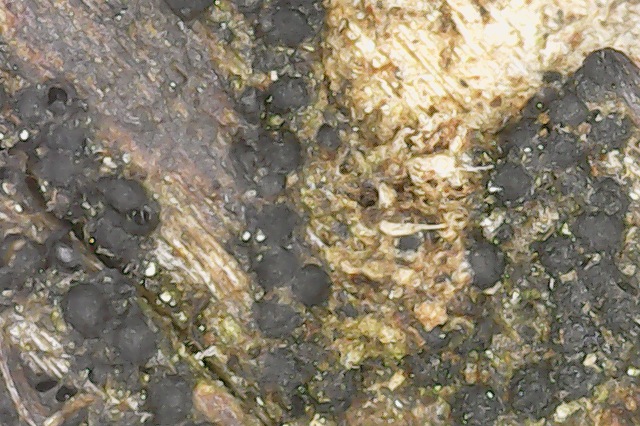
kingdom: Fungi
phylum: Ascomycota
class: Sordariomycetes
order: Coniochaetales
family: Coniochaetaceae
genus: Coniochaeta
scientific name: Coniochaeta
